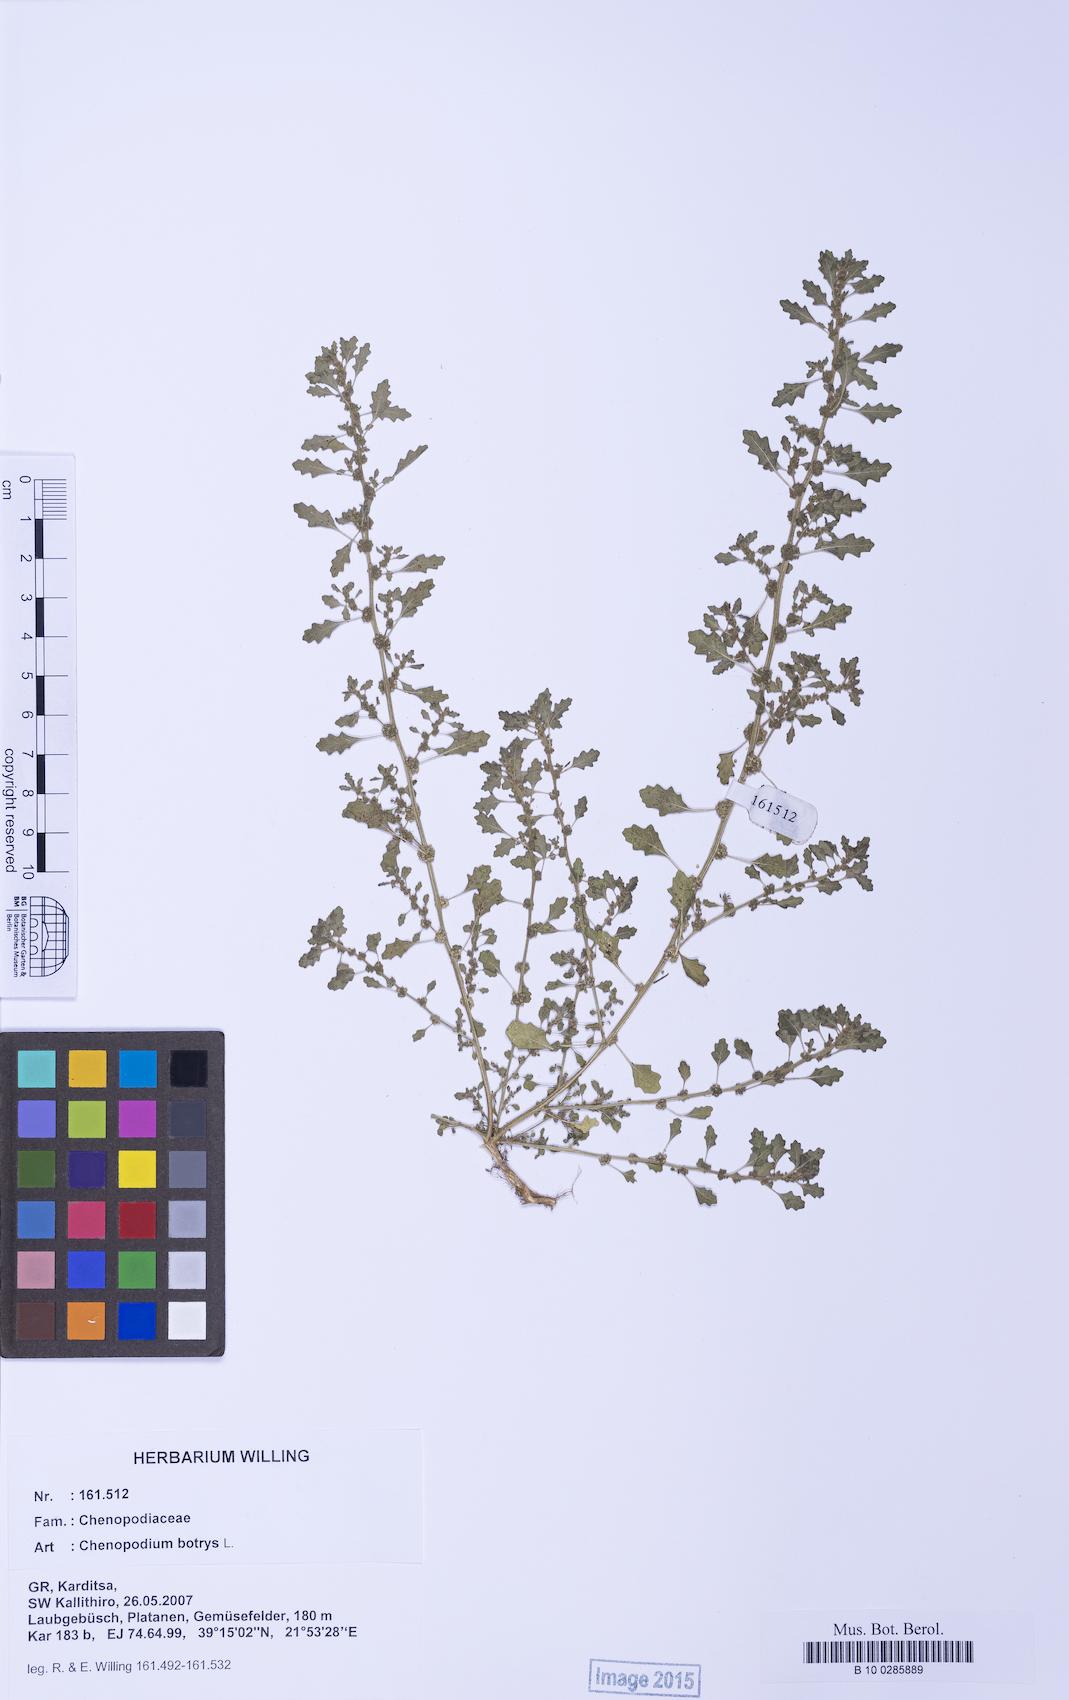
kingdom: Plantae
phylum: Tracheophyta
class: Magnoliopsida
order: Caryophyllales
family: Amaranthaceae
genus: Dysphania
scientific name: Dysphania pumilio
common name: Clammy goosefoot
